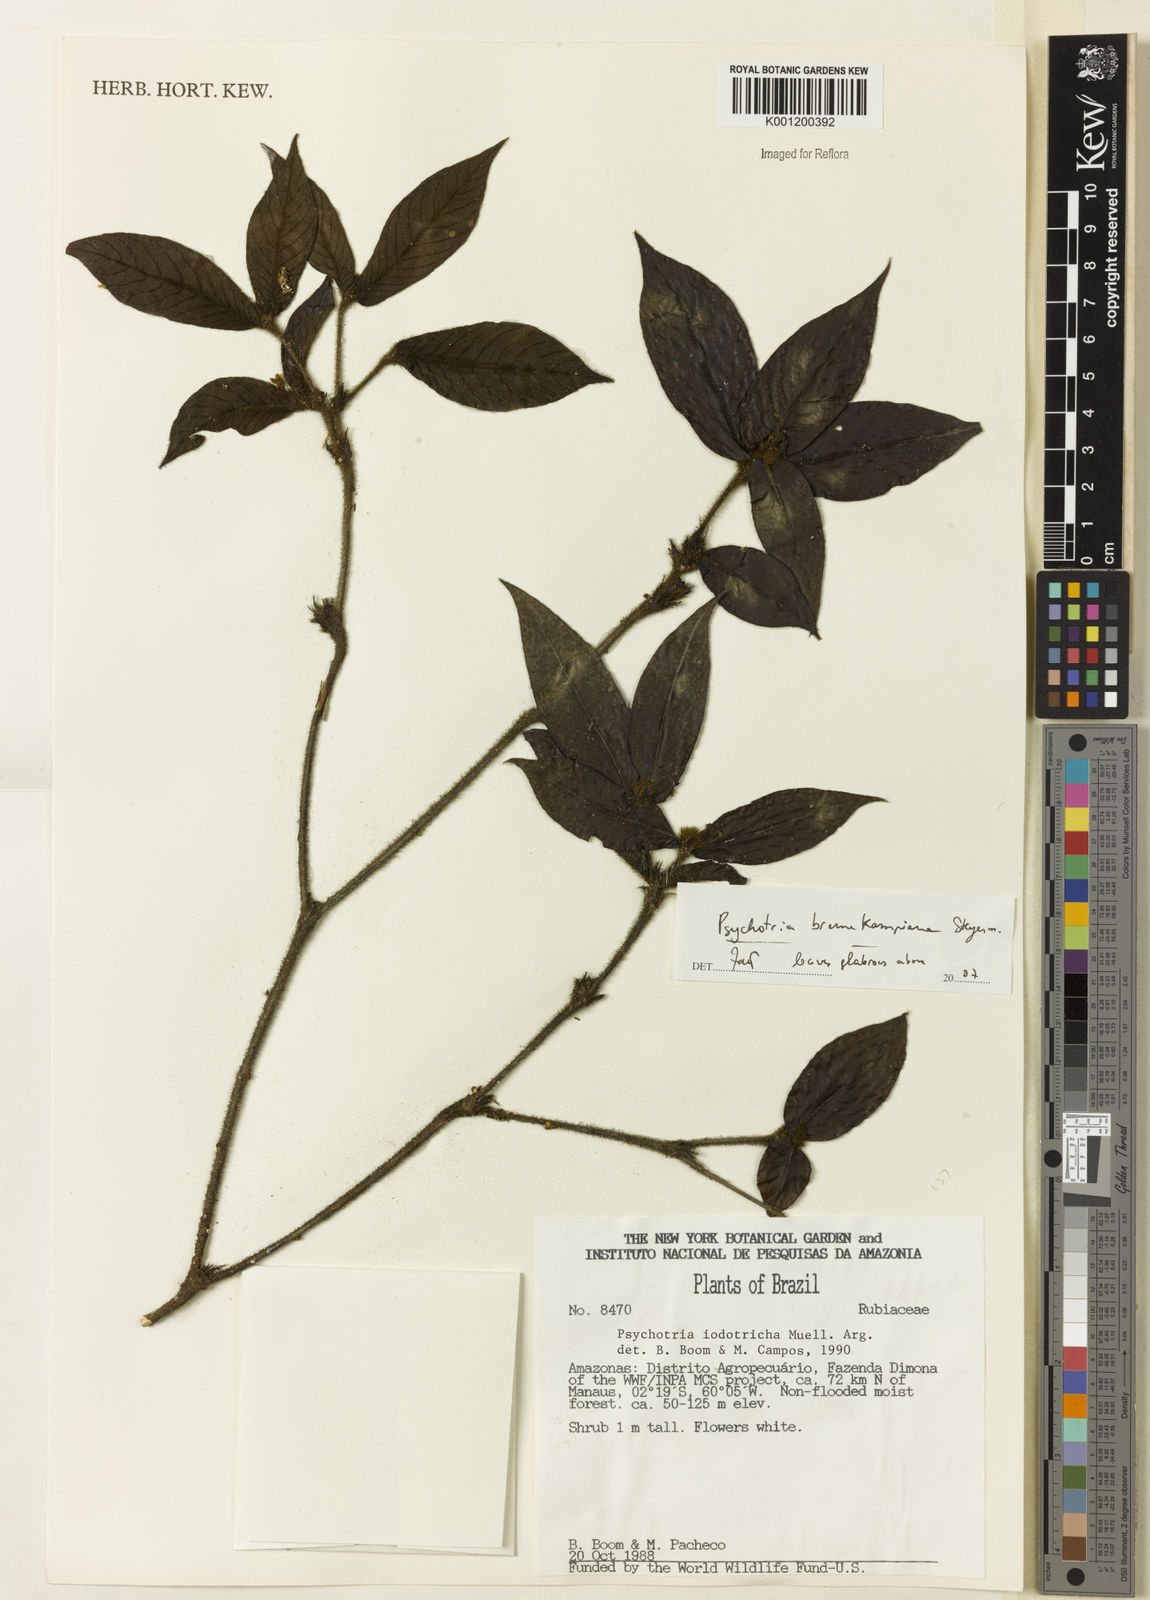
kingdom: Plantae
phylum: Tracheophyta
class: Magnoliopsida
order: Gentianales
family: Rubiaceae
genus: Palicourea
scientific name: Palicourea hirta
